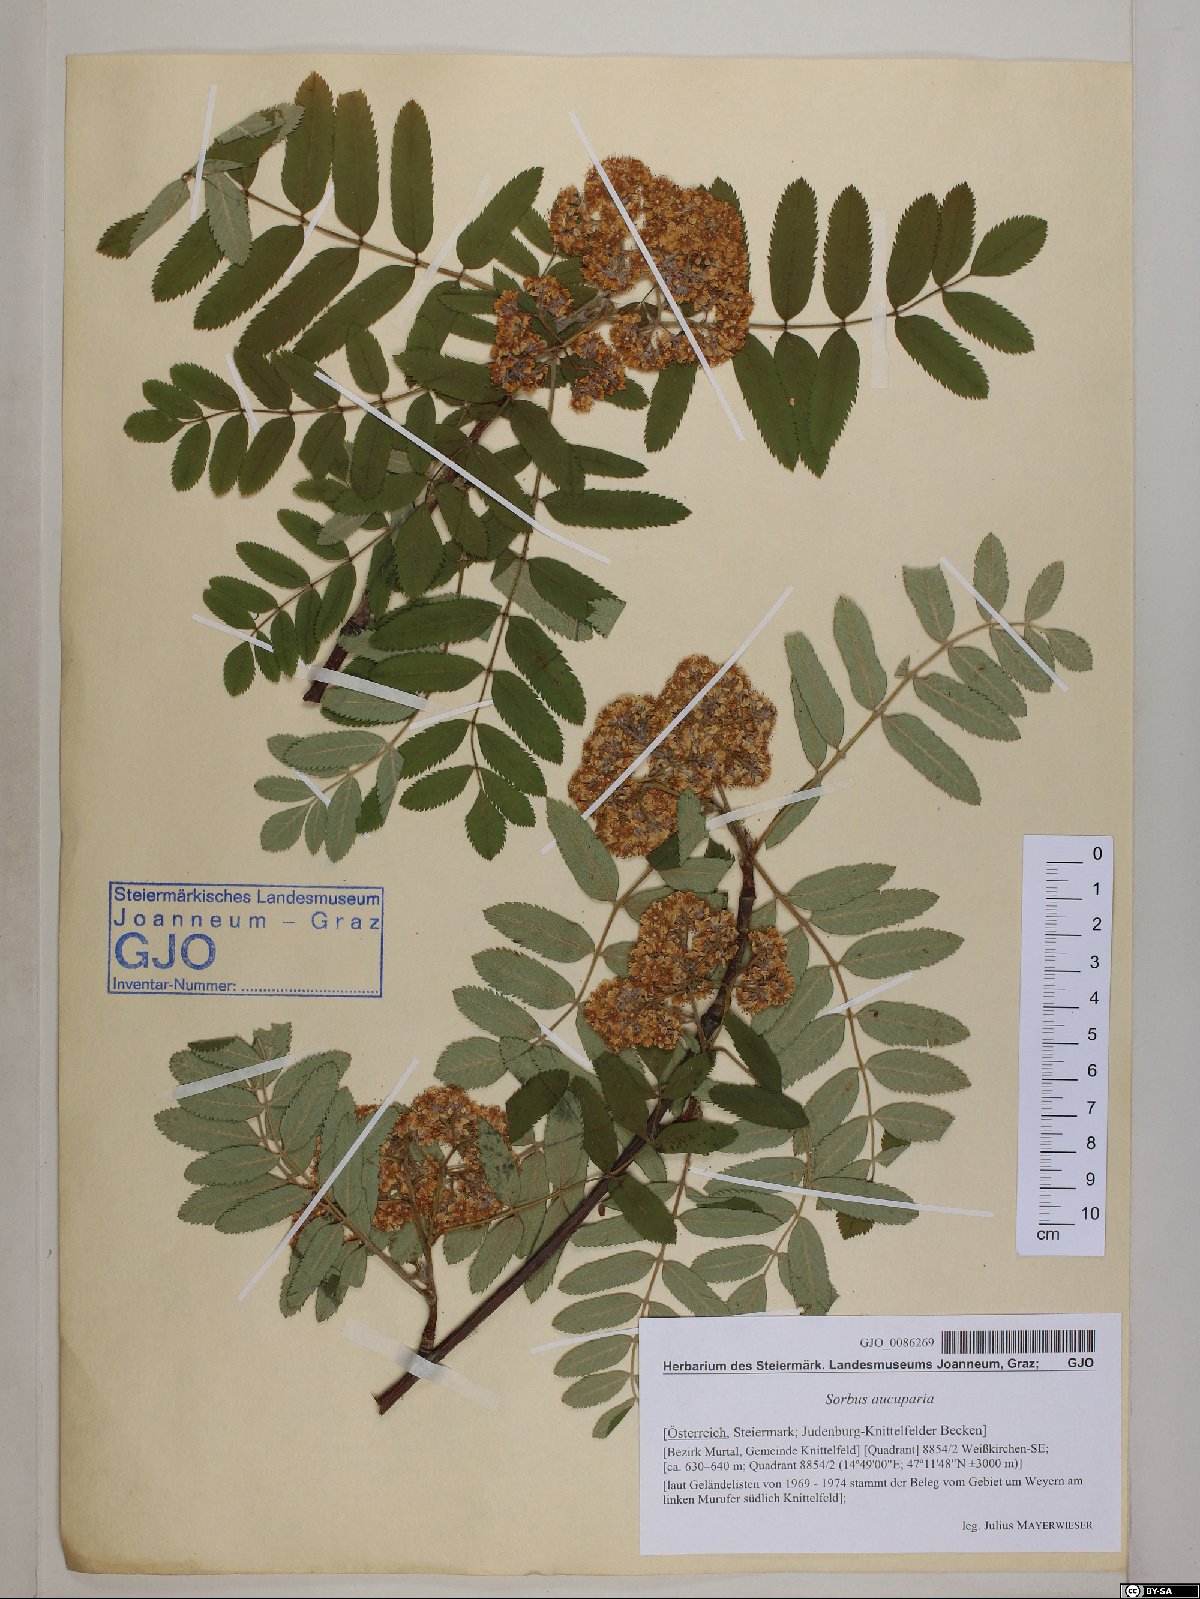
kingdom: Plantae
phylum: Tracheophyta
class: Magnoliopsida
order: Rosales
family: Rosaceae
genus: Sorbus
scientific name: Sorbus aucuparia
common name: Rowan
